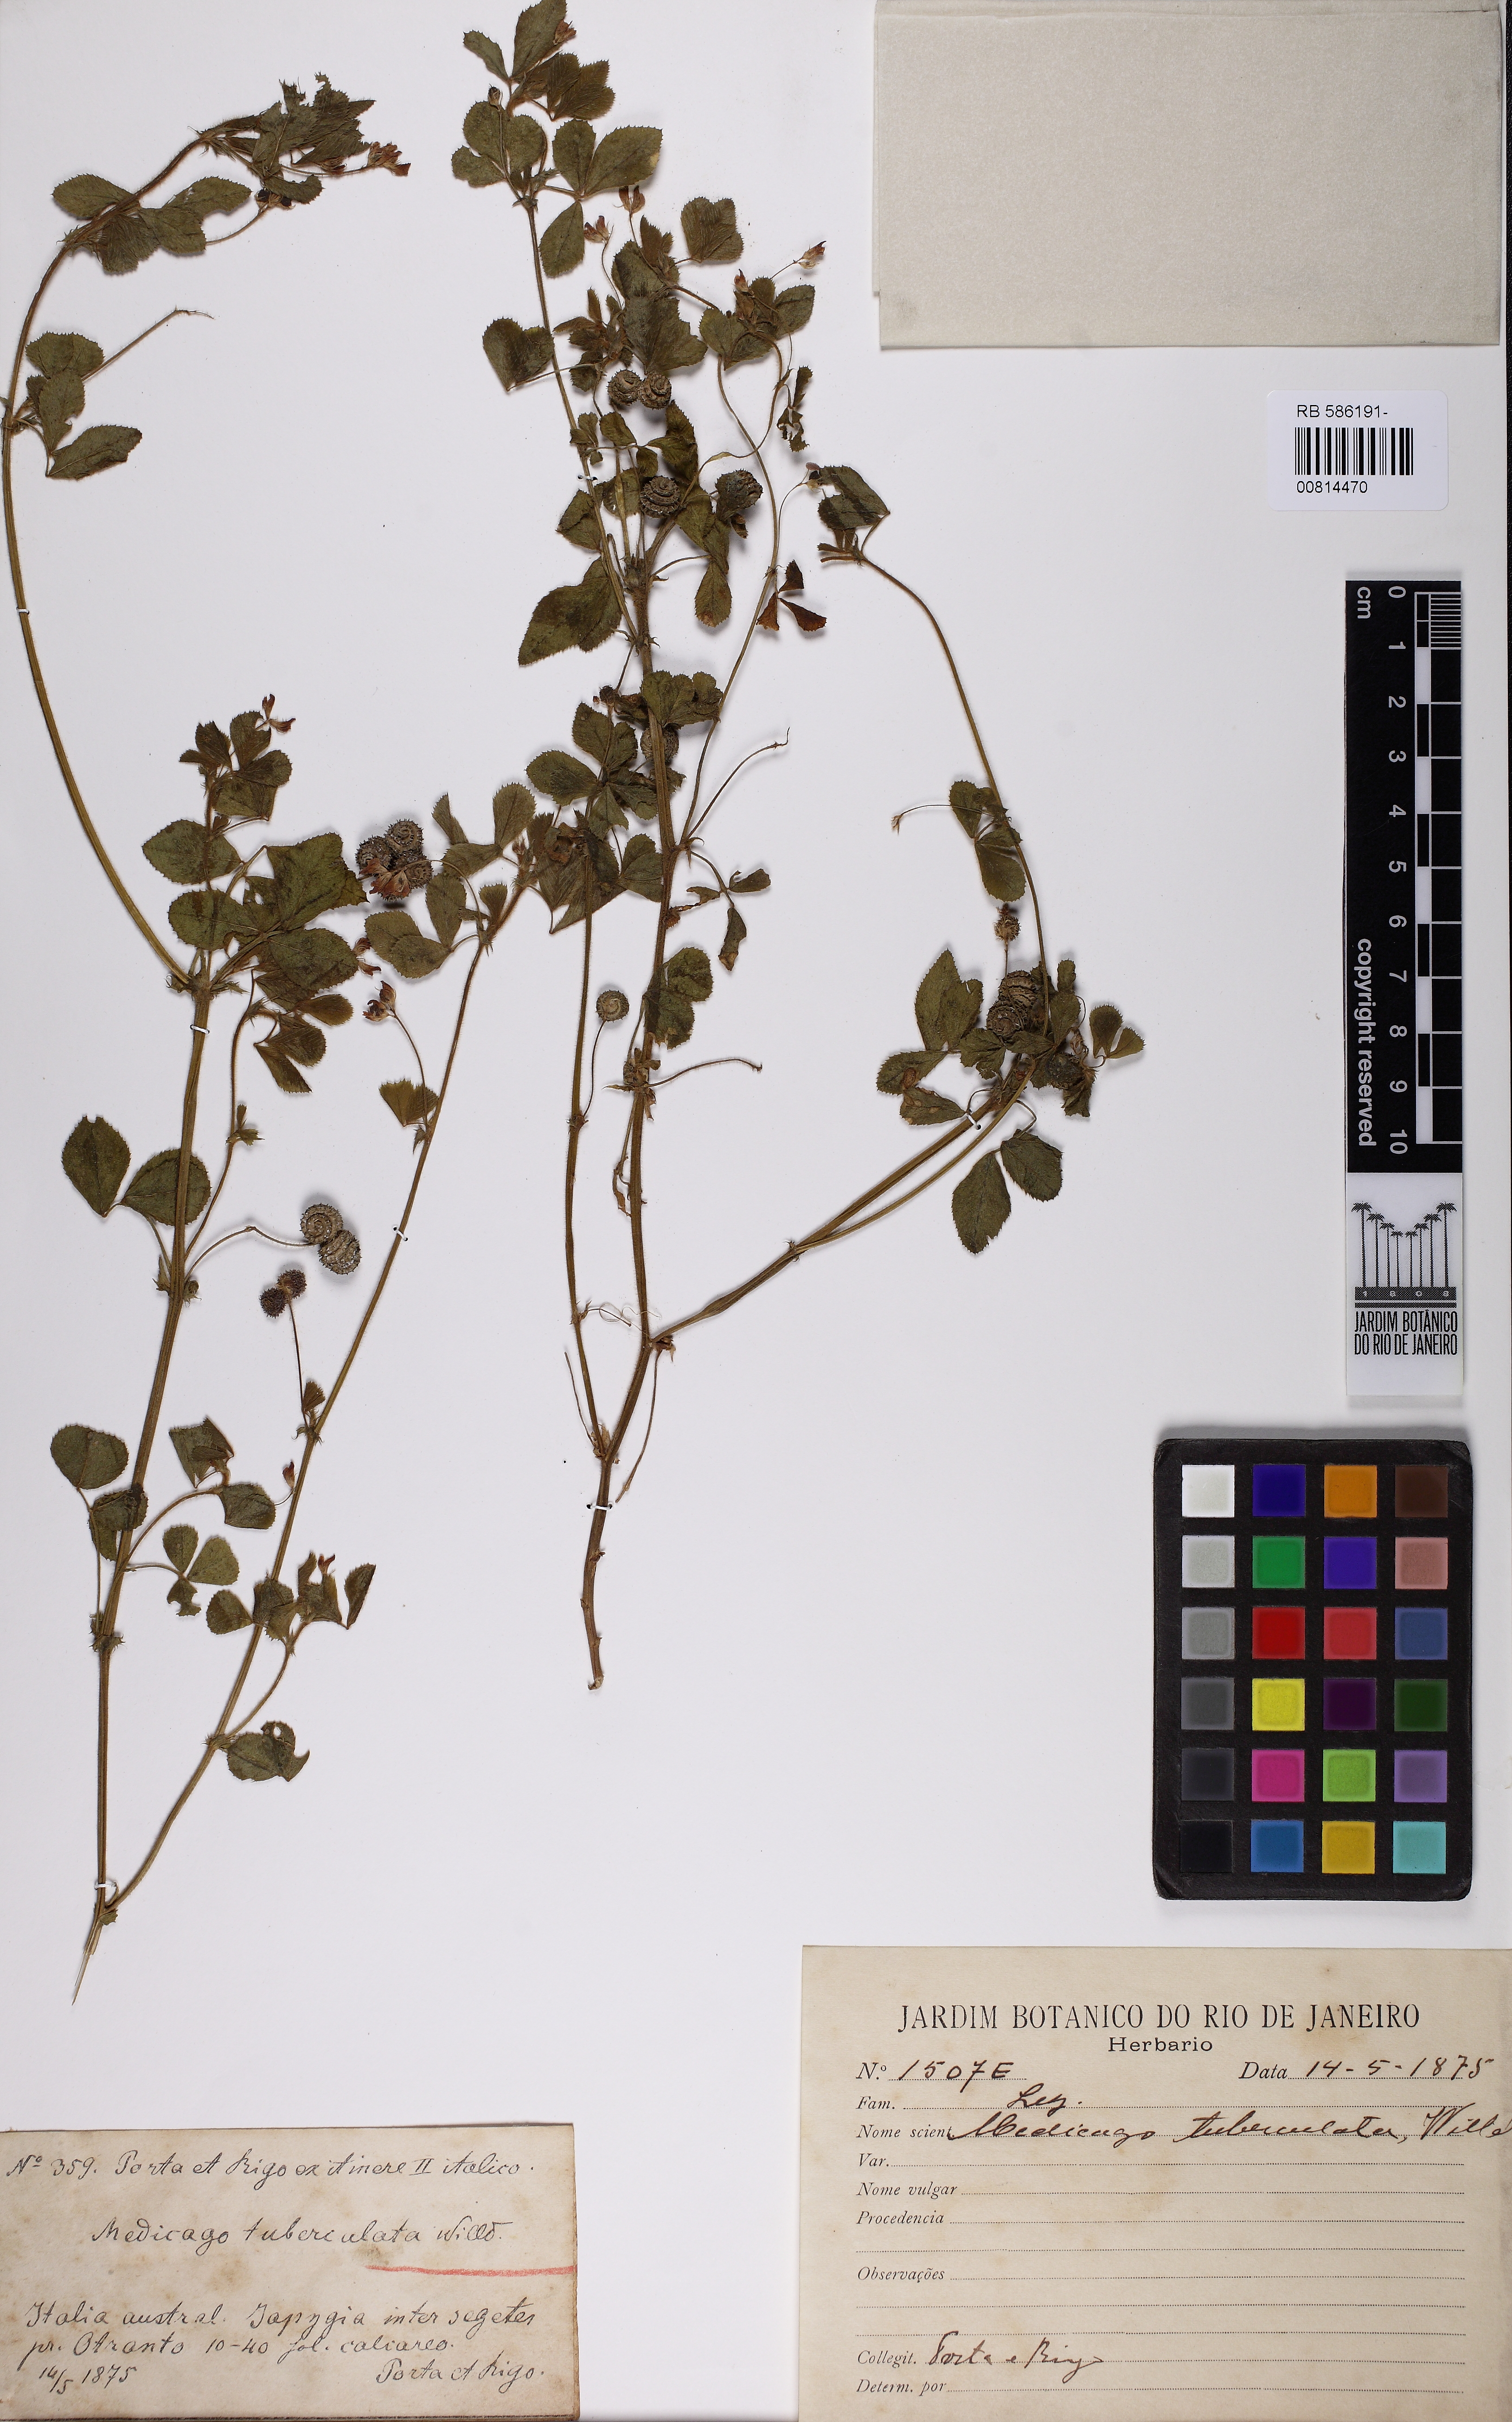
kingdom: Plantae
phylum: Tracheophyta
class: Magnoliopsida
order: Fabales
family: Fabaceae
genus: Medicago
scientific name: Medicago doliata
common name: Keg medic
